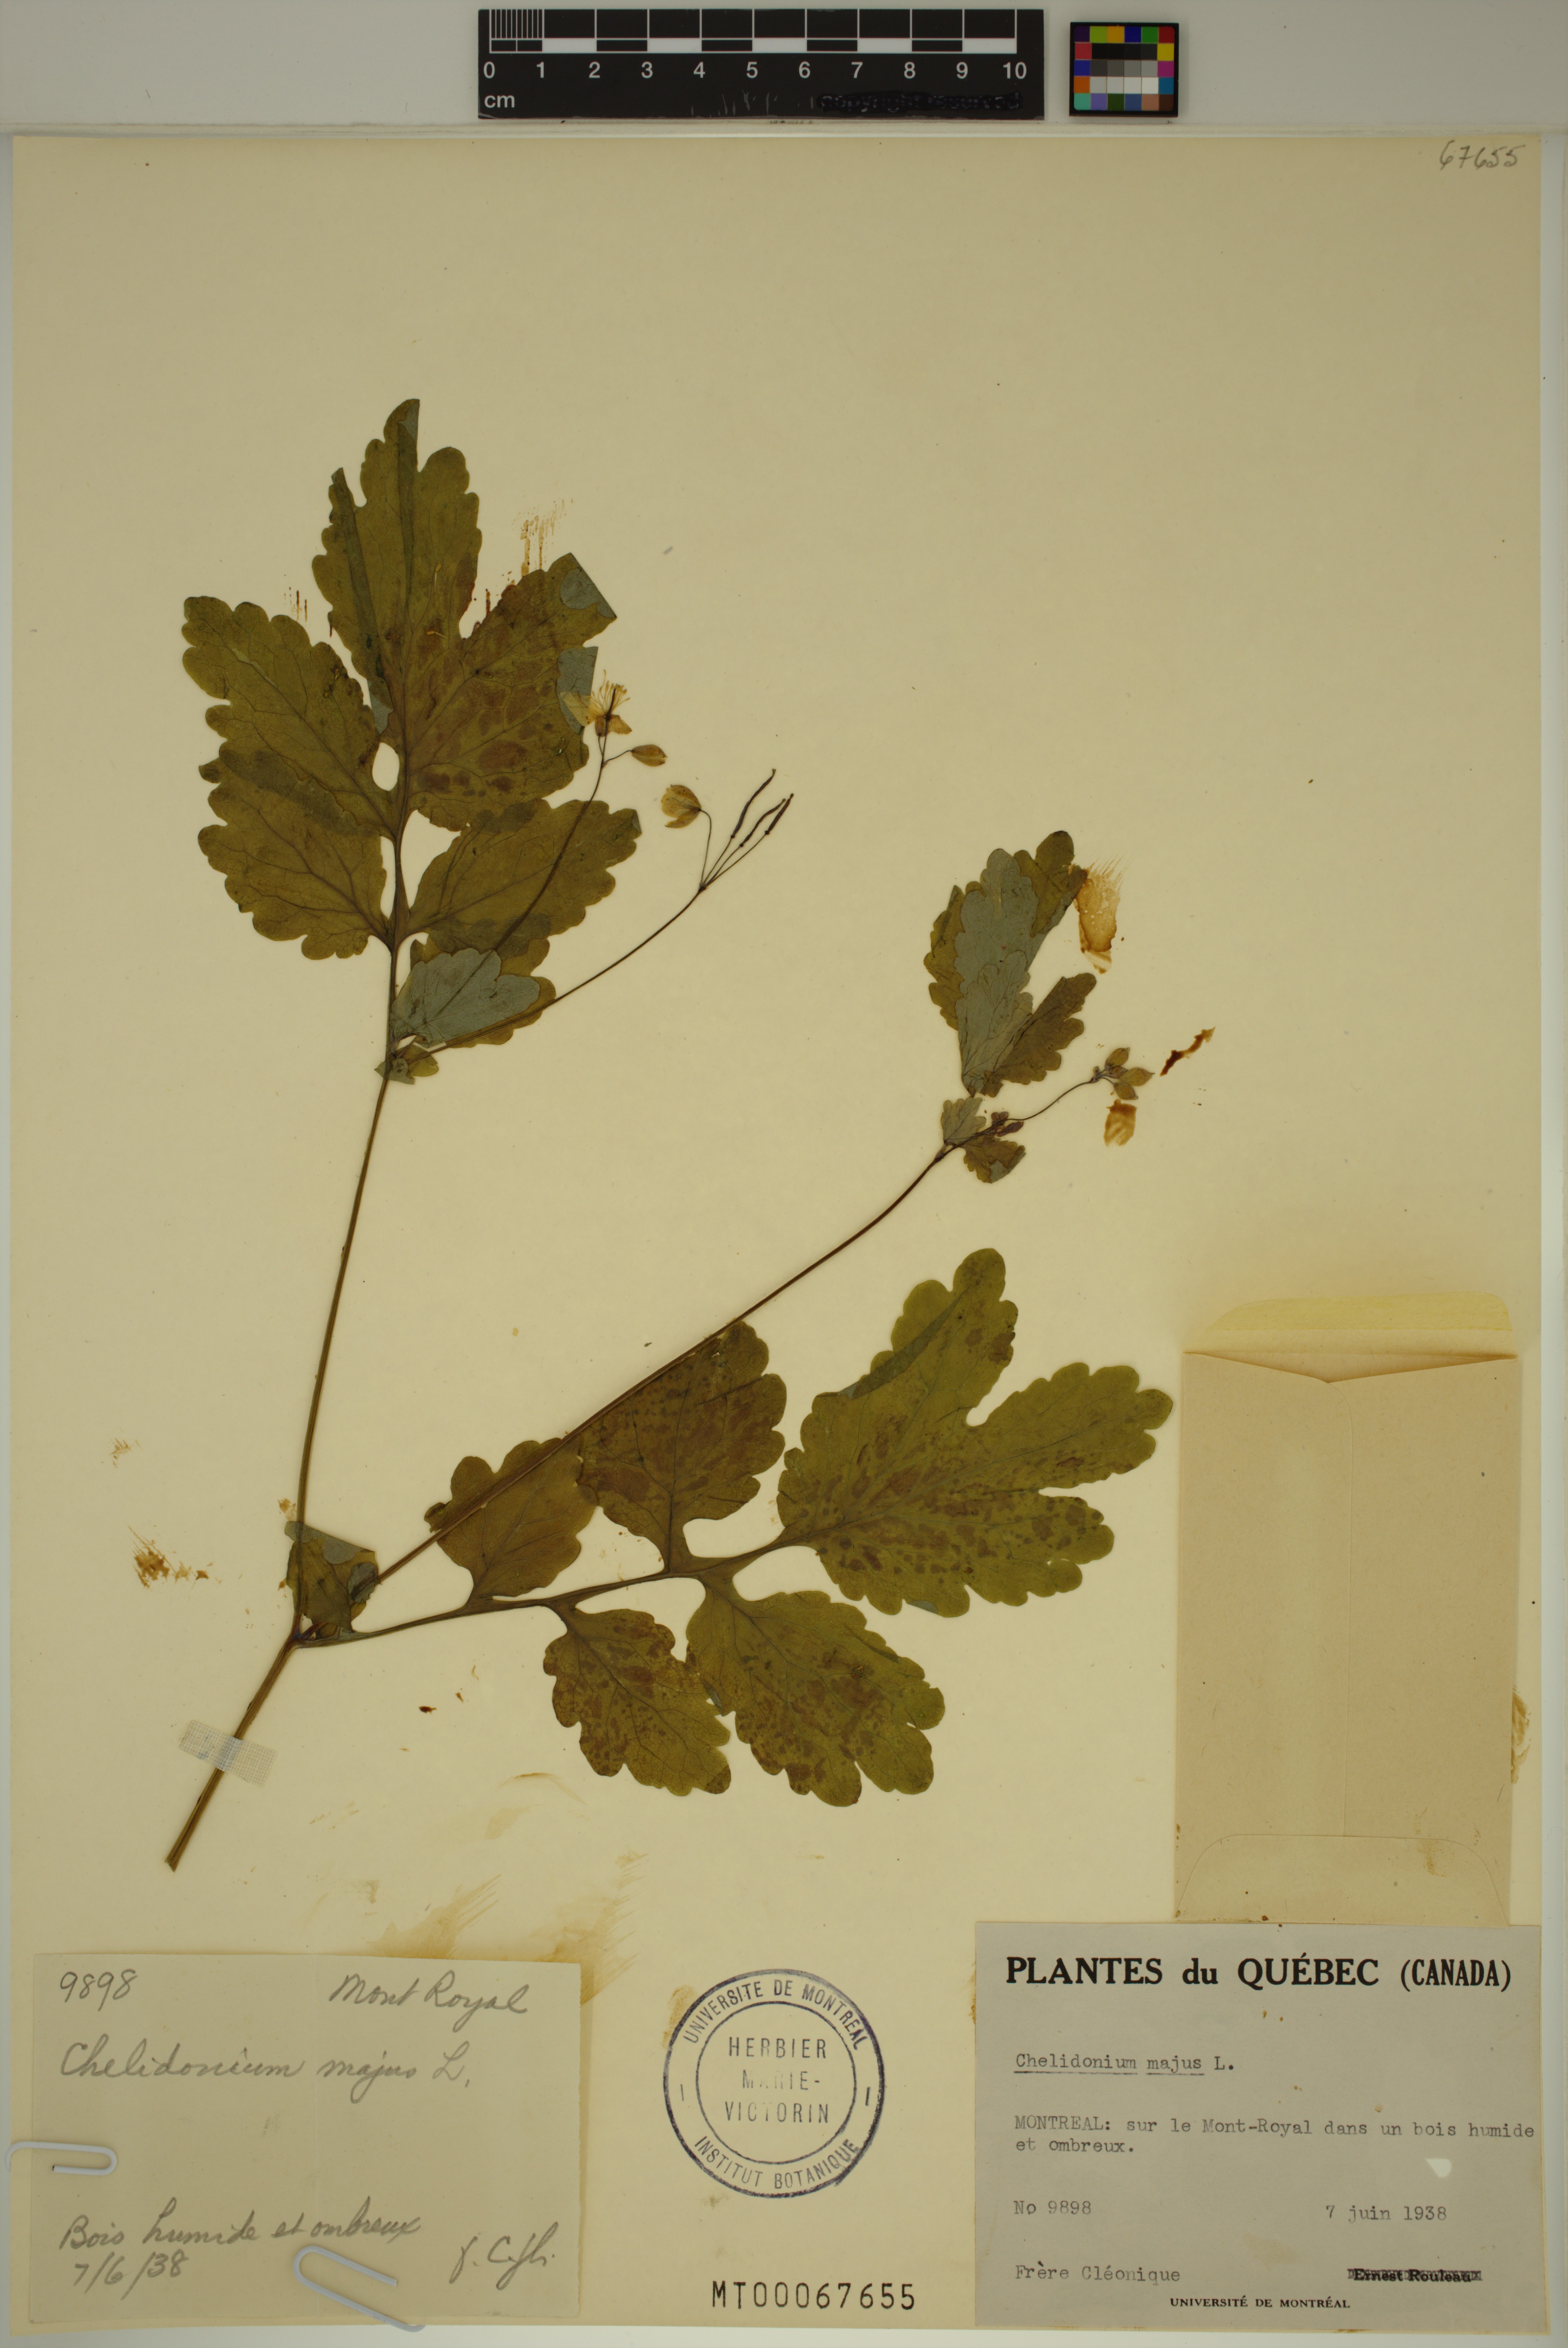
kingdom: Plantae
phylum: Tracheophyta
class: Magnoliopsida
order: Ranunculales
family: Papaveraceae
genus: Chelidonium
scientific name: Chelidonium majus
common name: Greater celandine
